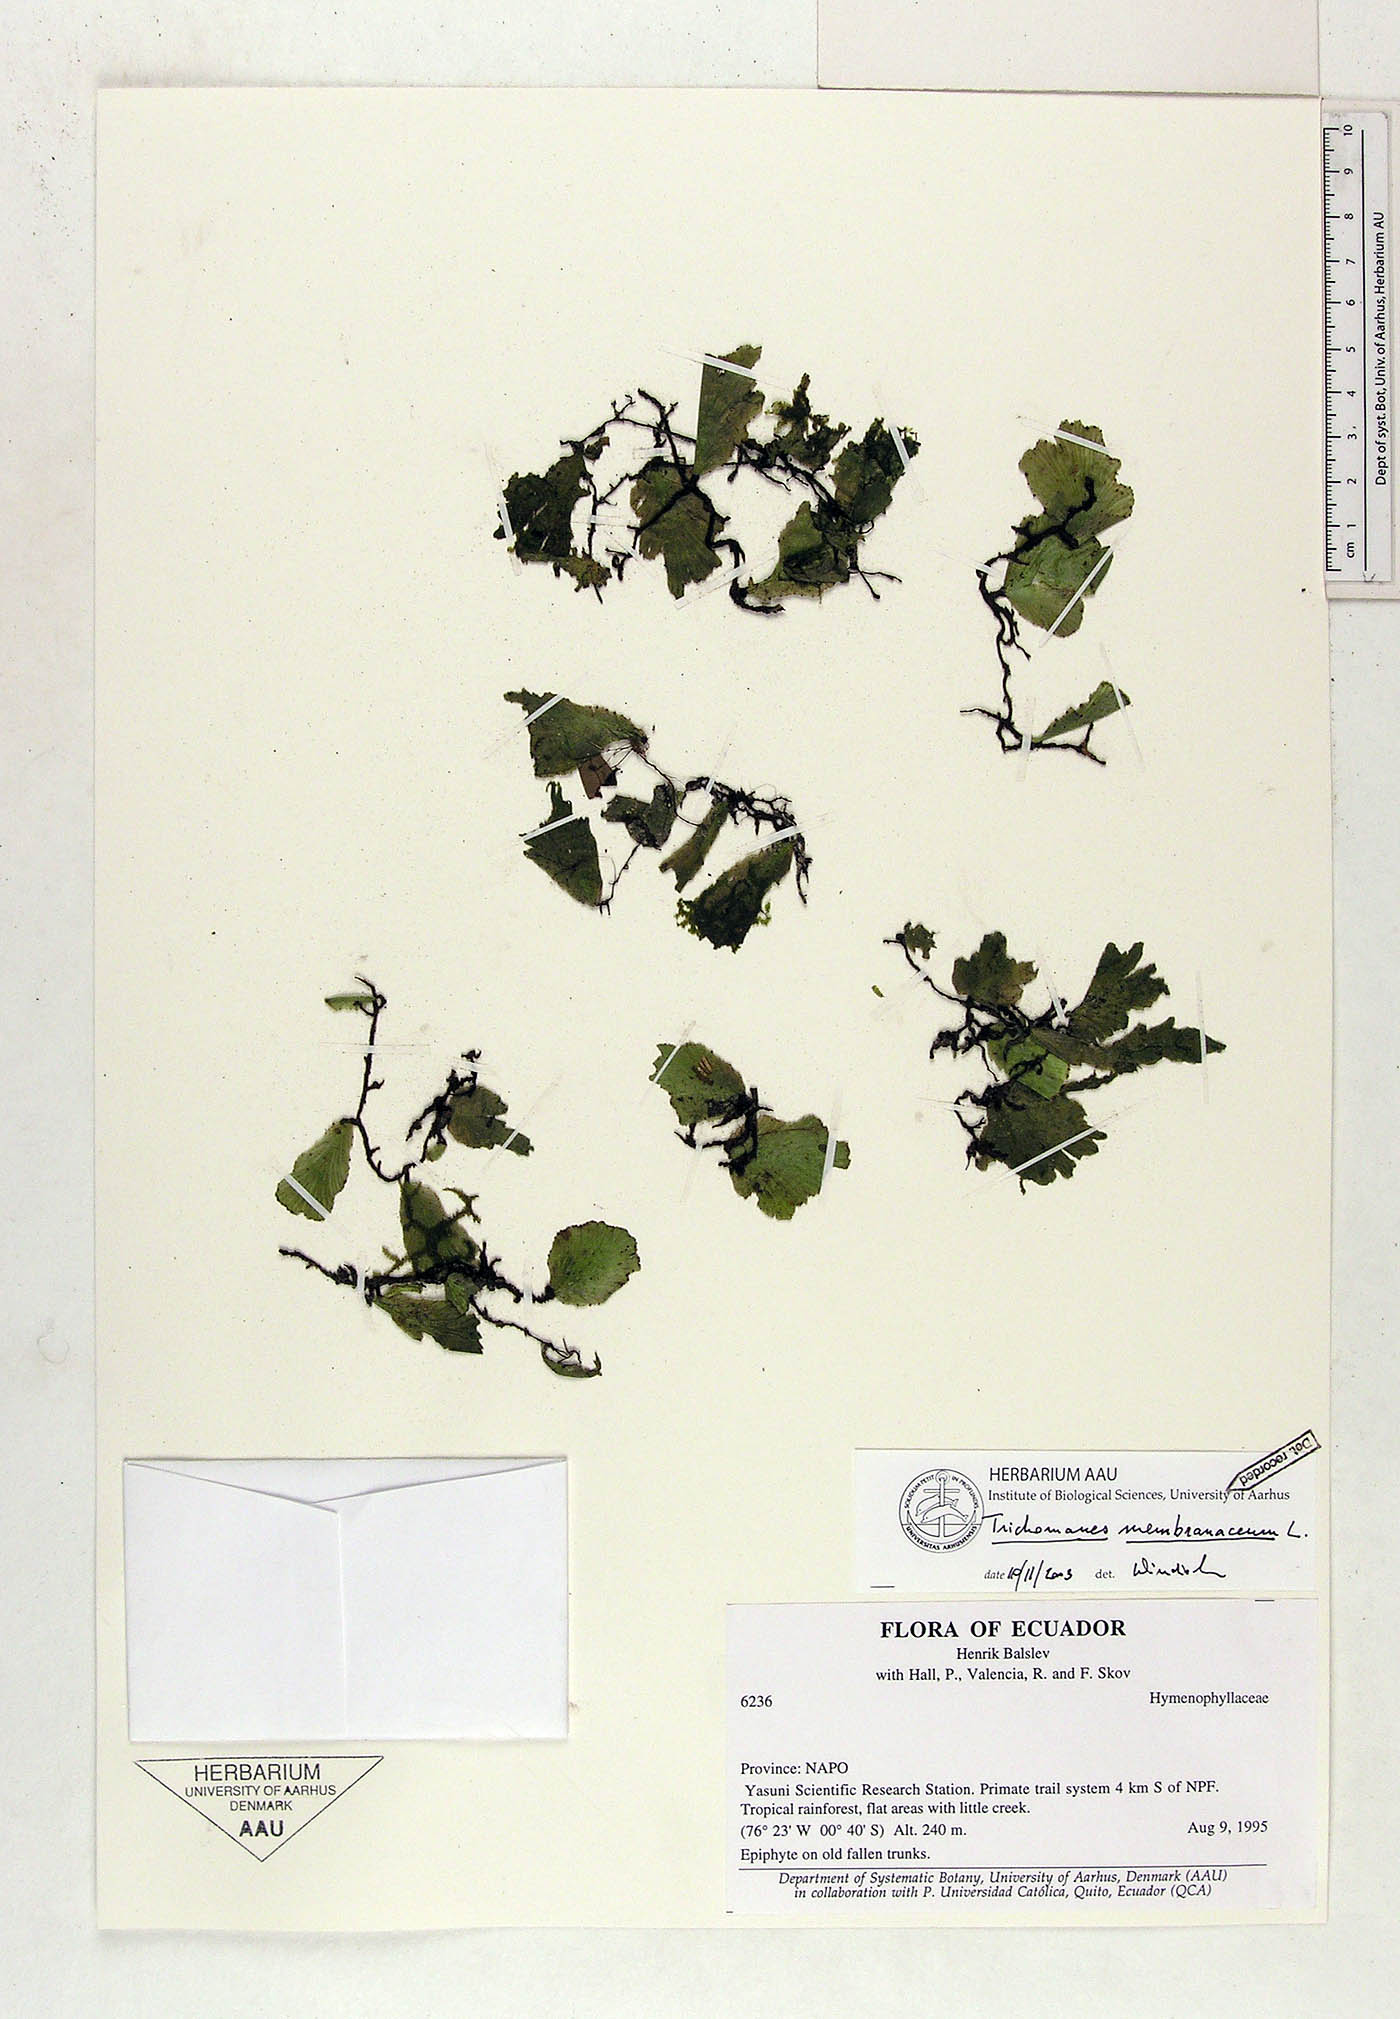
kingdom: Plantae
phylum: Tracheophyta
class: Polypodiopsida
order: Hymenophyllales
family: Hymenophyllaceae
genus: Didymoglossum
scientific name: Didymoglossum membranaceum
